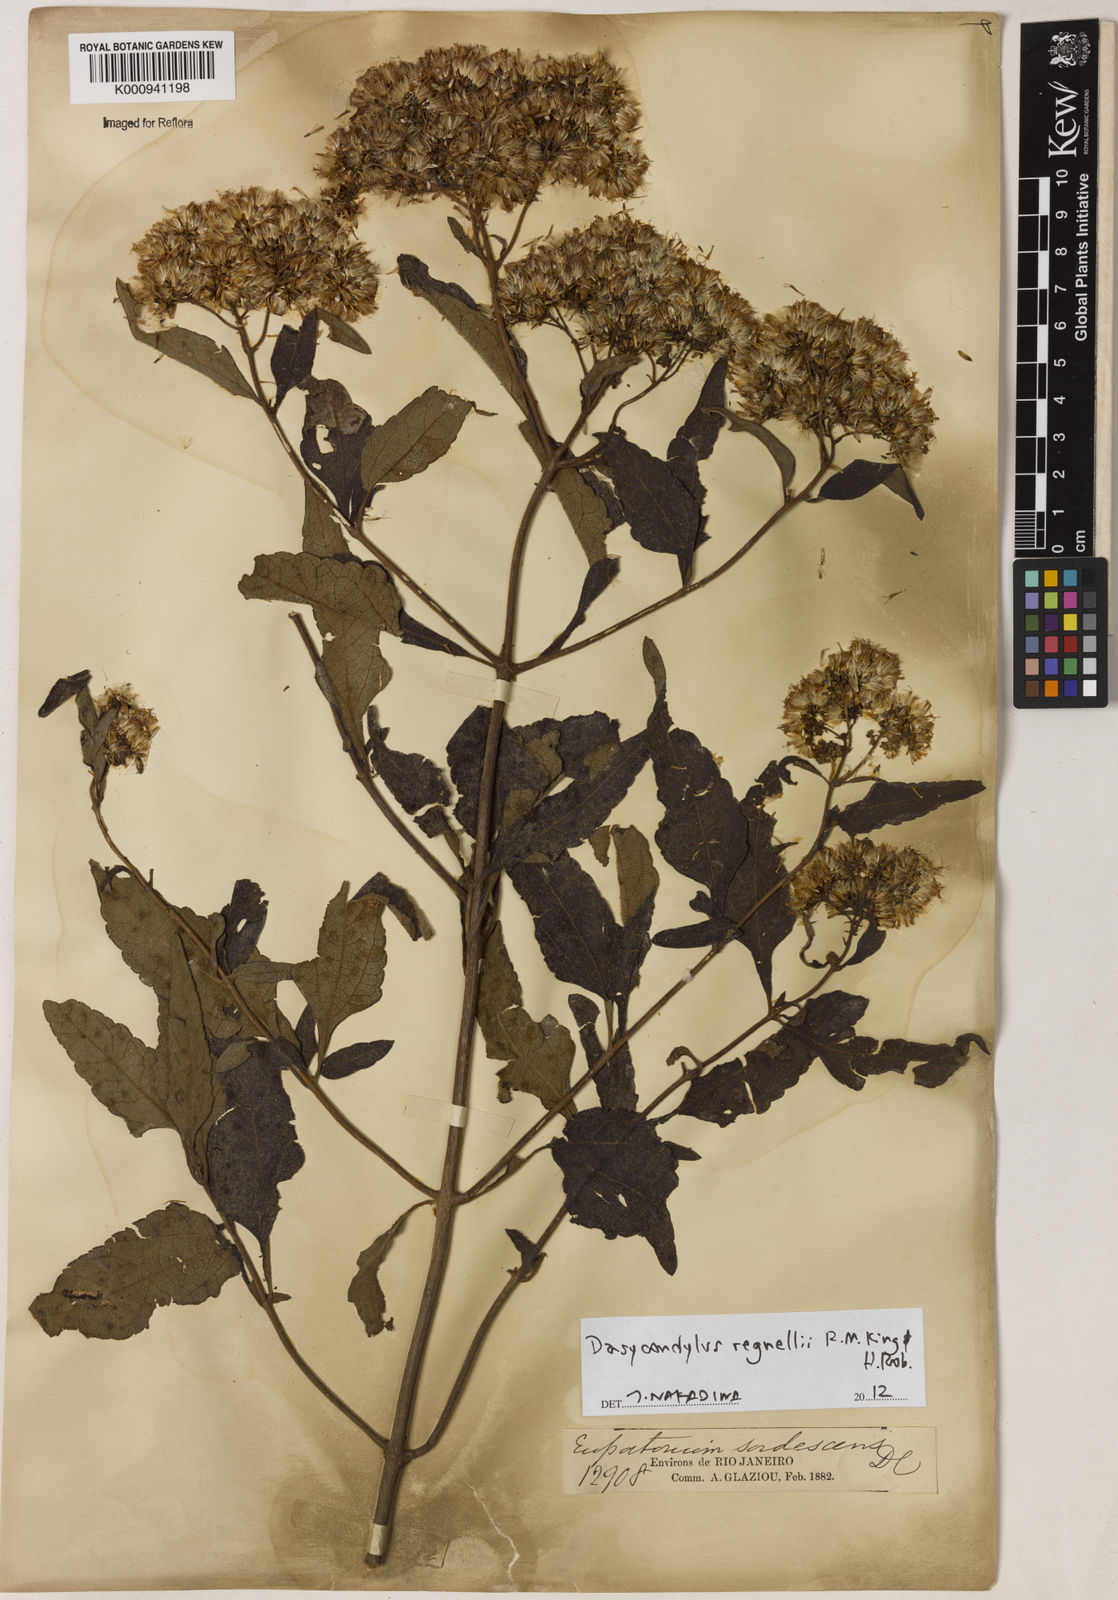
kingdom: Plantae
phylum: Tracheophyta
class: Magnoliopsida
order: Asterales
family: Asteraceae
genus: Dasycondylus
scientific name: Dasycondylus regnellii
